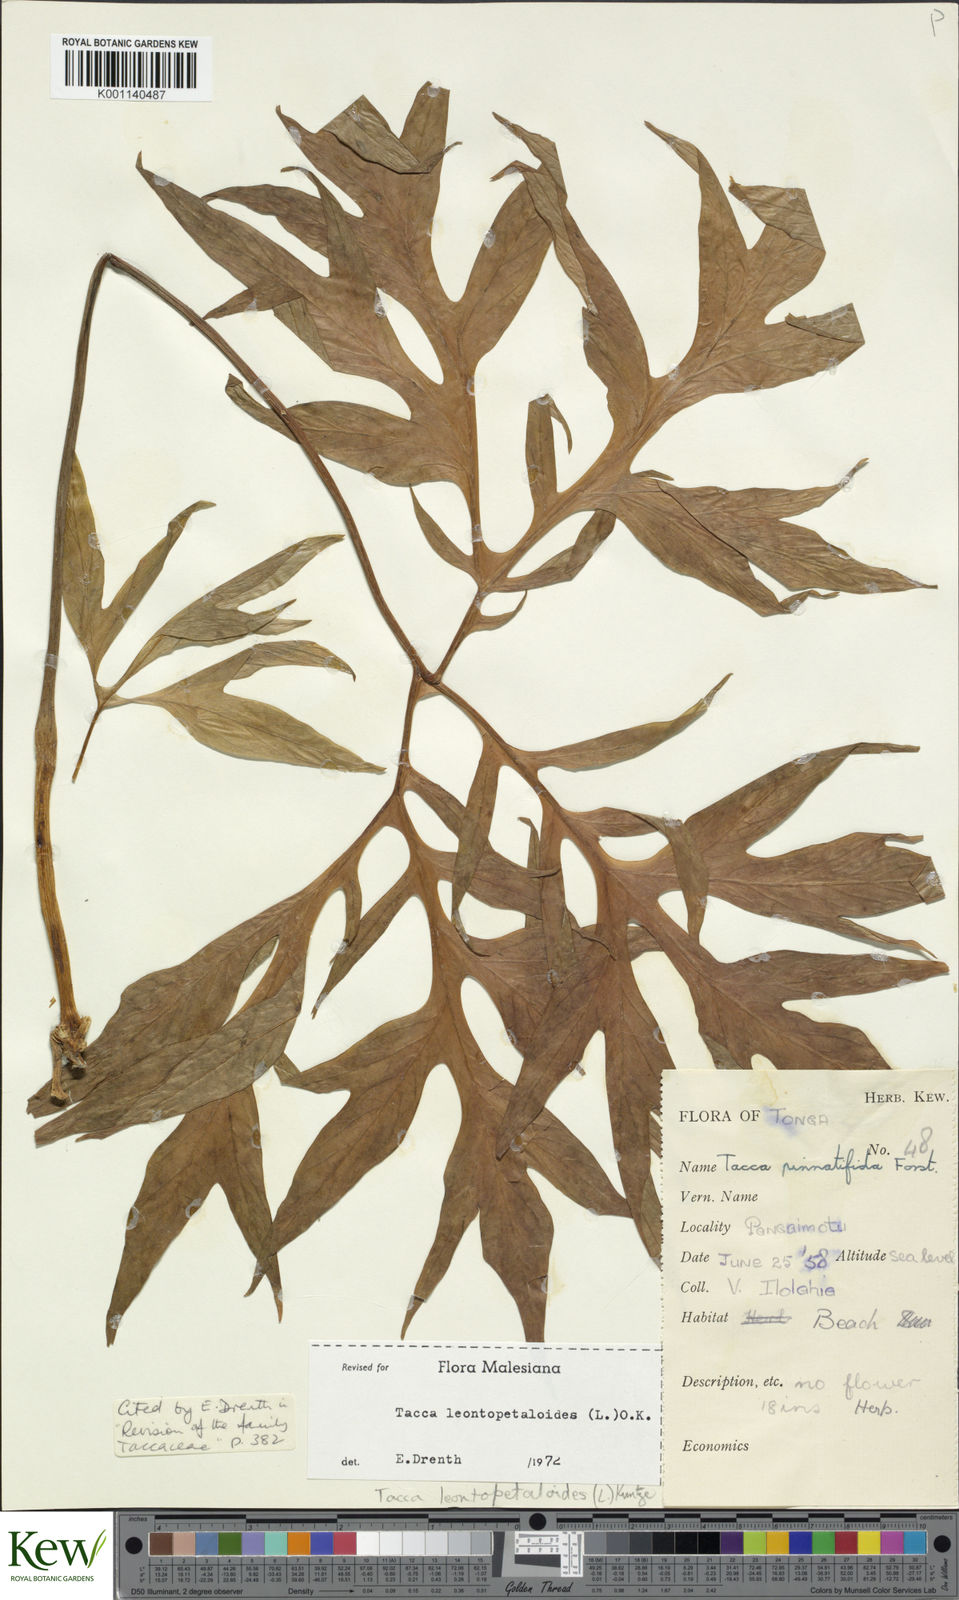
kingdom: Plantae
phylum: Tracheophyta
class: Liliopsida
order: Dioscoreales
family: Dioscoreaceae
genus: Tacca
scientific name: Tacca leontopetaloides
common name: Arrowroot
